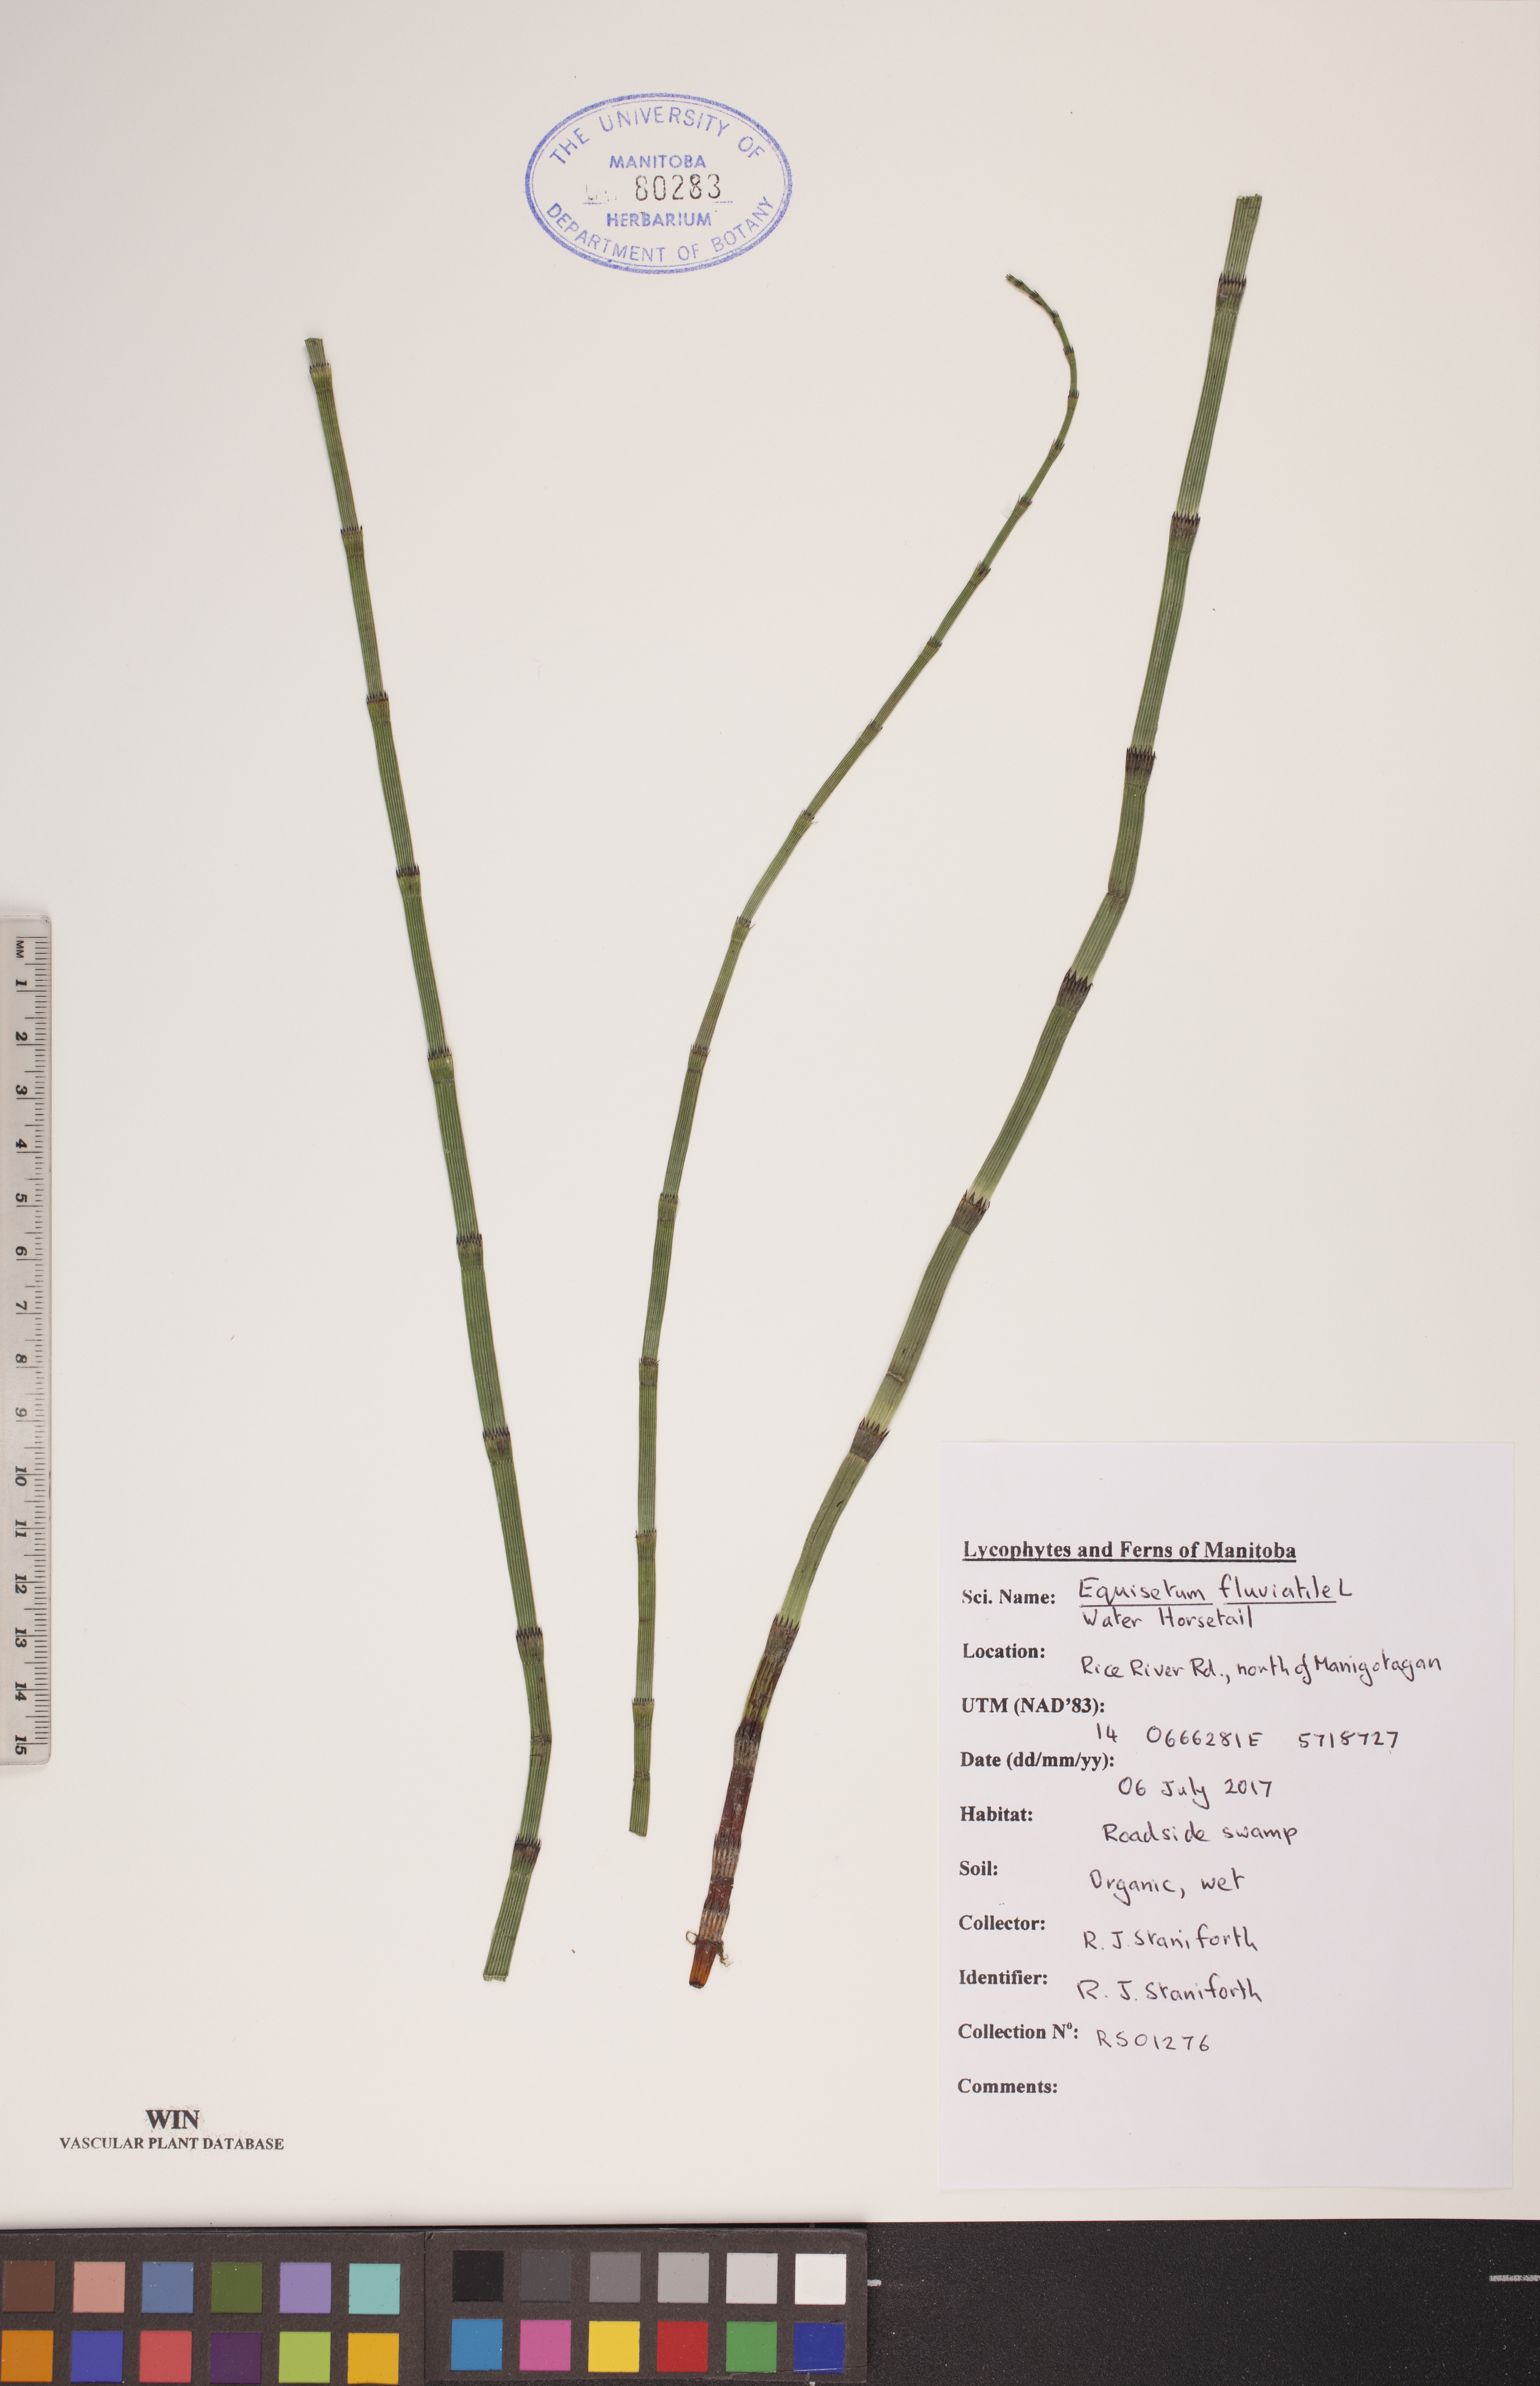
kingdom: Plantae
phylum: Tracheophyta
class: Polypodiopsida
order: Equisetales
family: Equisetaceae
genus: Equisetum
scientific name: Equisetum fluviatile
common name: Water horsetail
